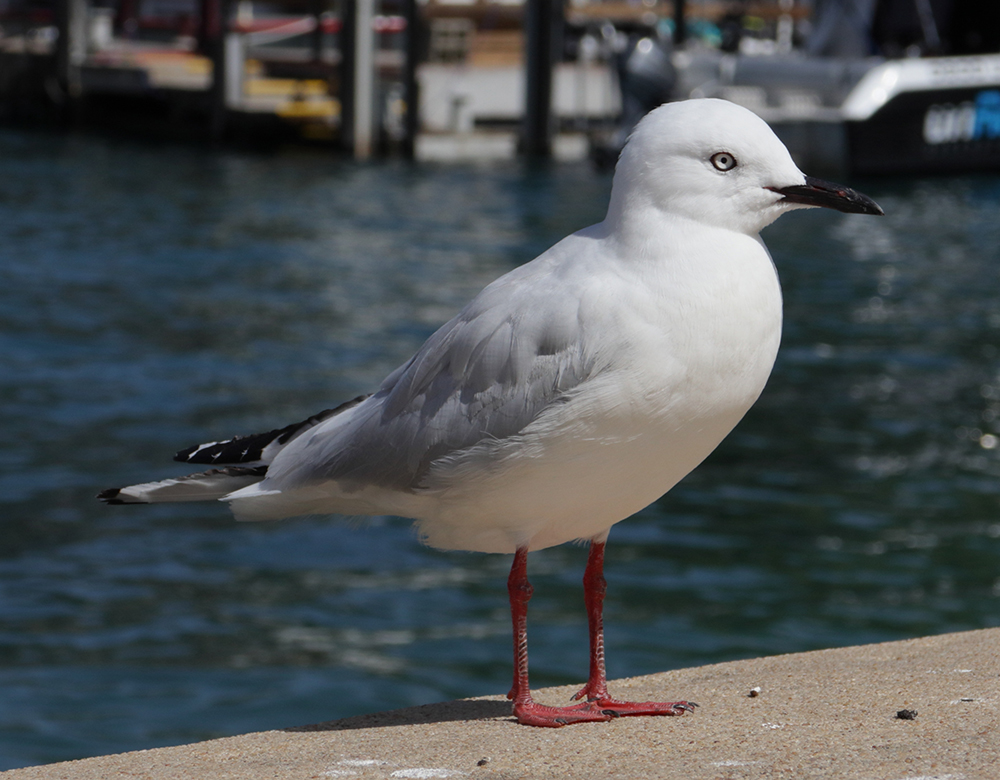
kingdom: Animalia
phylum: Chordata
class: Aves
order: Charadriiformes
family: Laridae
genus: Chroicocephalus
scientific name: Chroicocephalus novaehollandiae
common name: Silver gull
